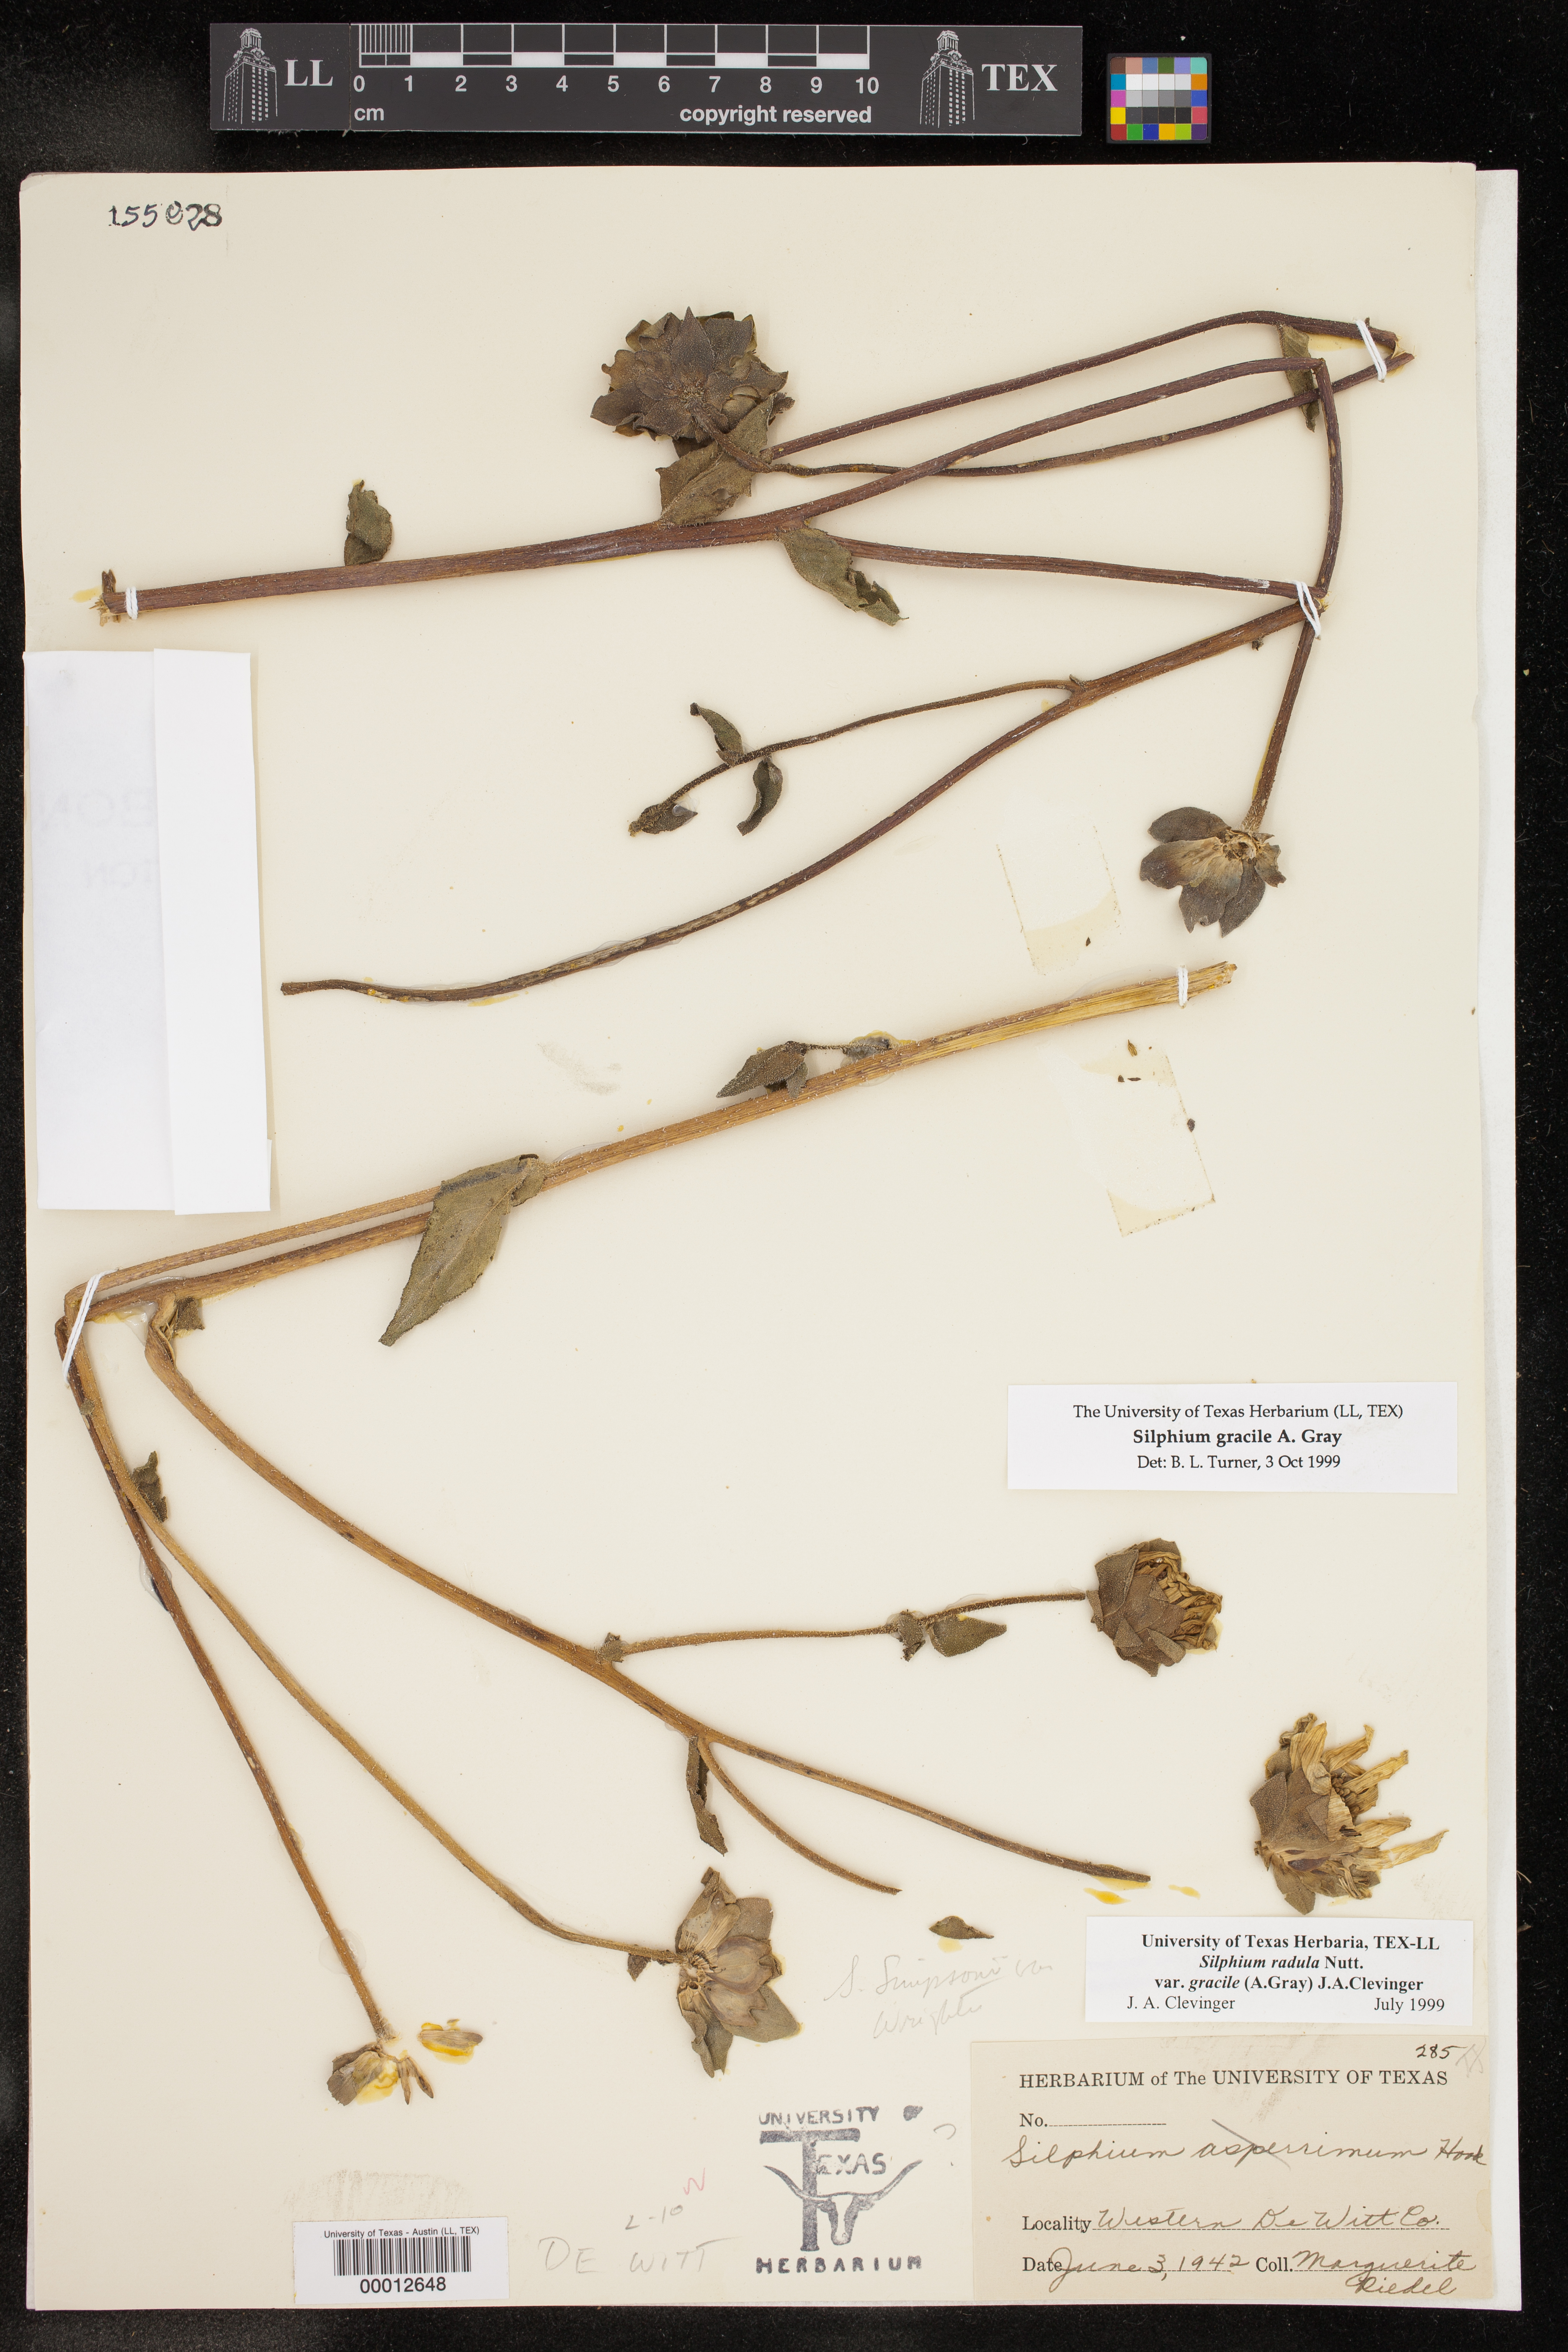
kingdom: Plantae
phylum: Tracheophyta
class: Magnoliopsida
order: Asterales
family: Asteraceae
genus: Silphium
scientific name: Silphium radula
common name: Roughleaf rosinweed
